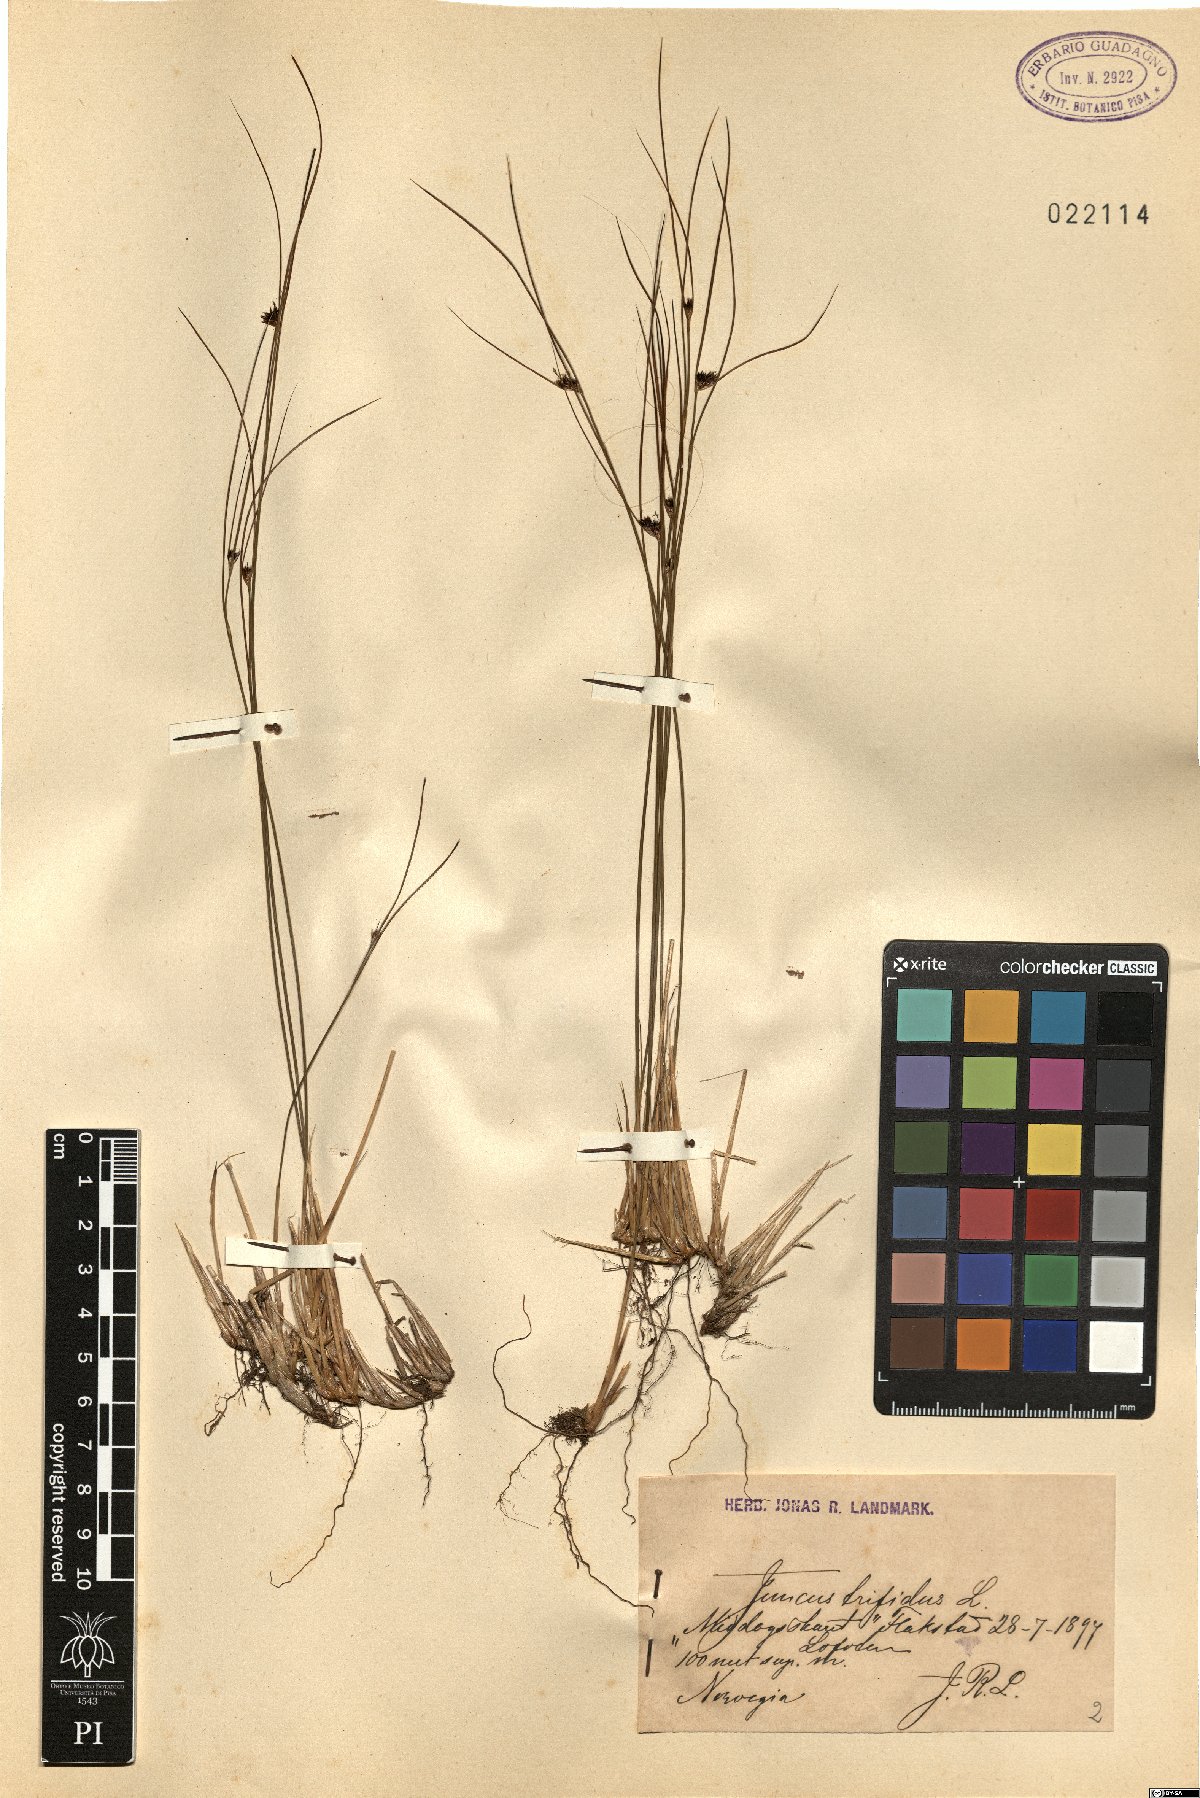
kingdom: Plantae
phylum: Tracheophyta
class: Liliopsida
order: Poales
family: Juncaceae
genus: Oreojuncus
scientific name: Oreojuncus trifidus
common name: Highland rush
